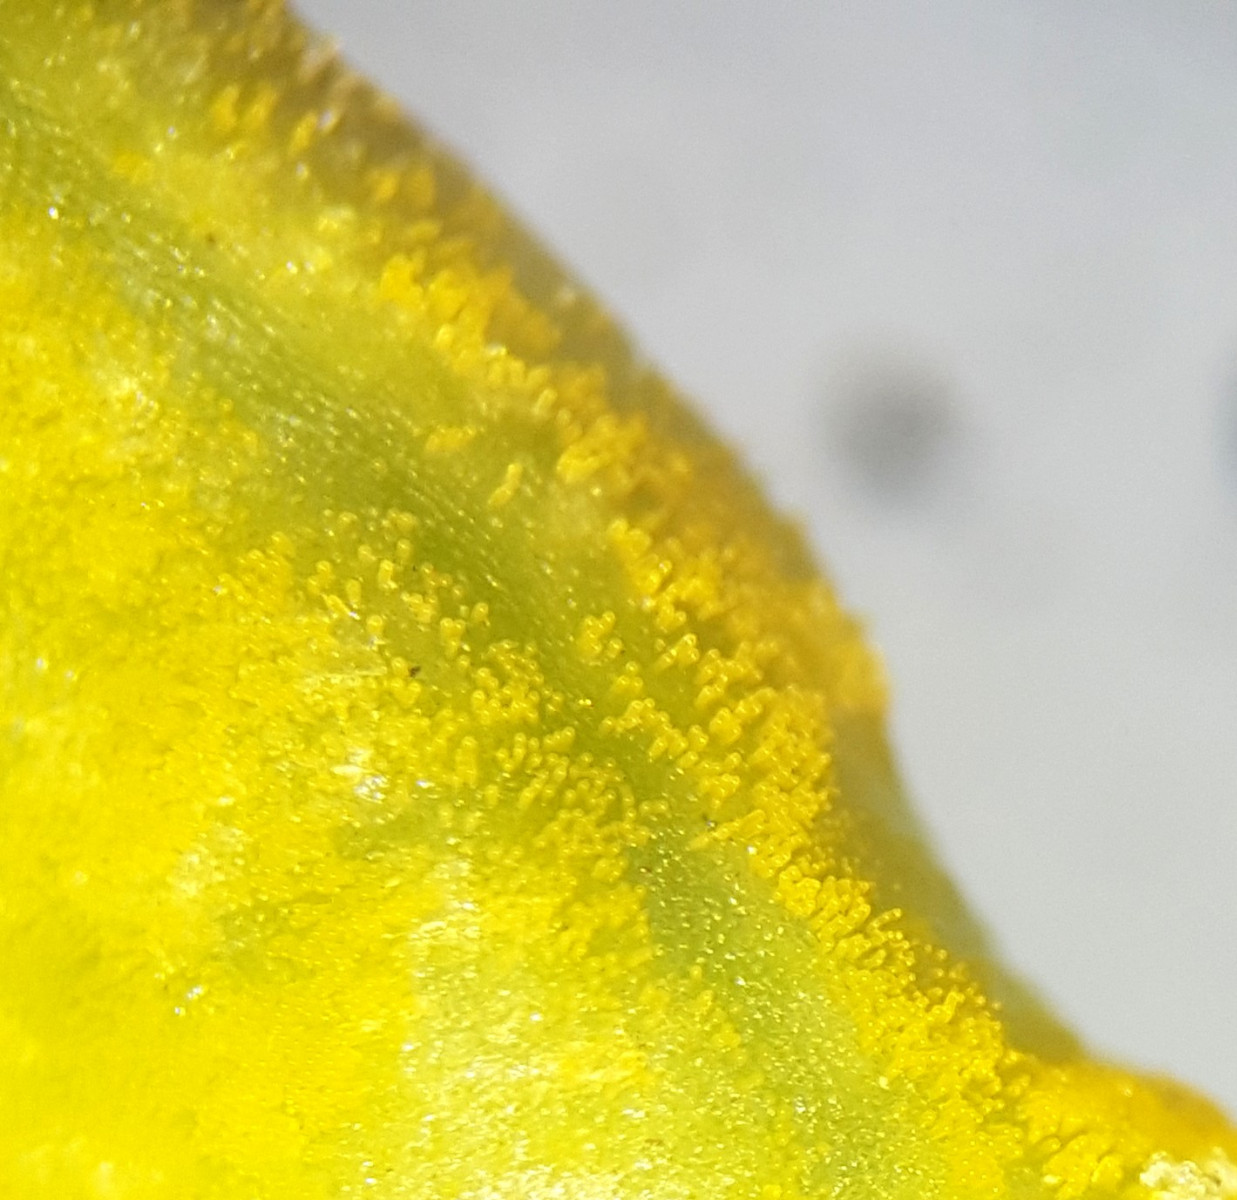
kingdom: Fungi
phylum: Ascomycota
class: Taphrinomycetes
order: Taphrinales
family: Taphrinaceae
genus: Taphrina
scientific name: Taphrina populina
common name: Poplar leaf curl
